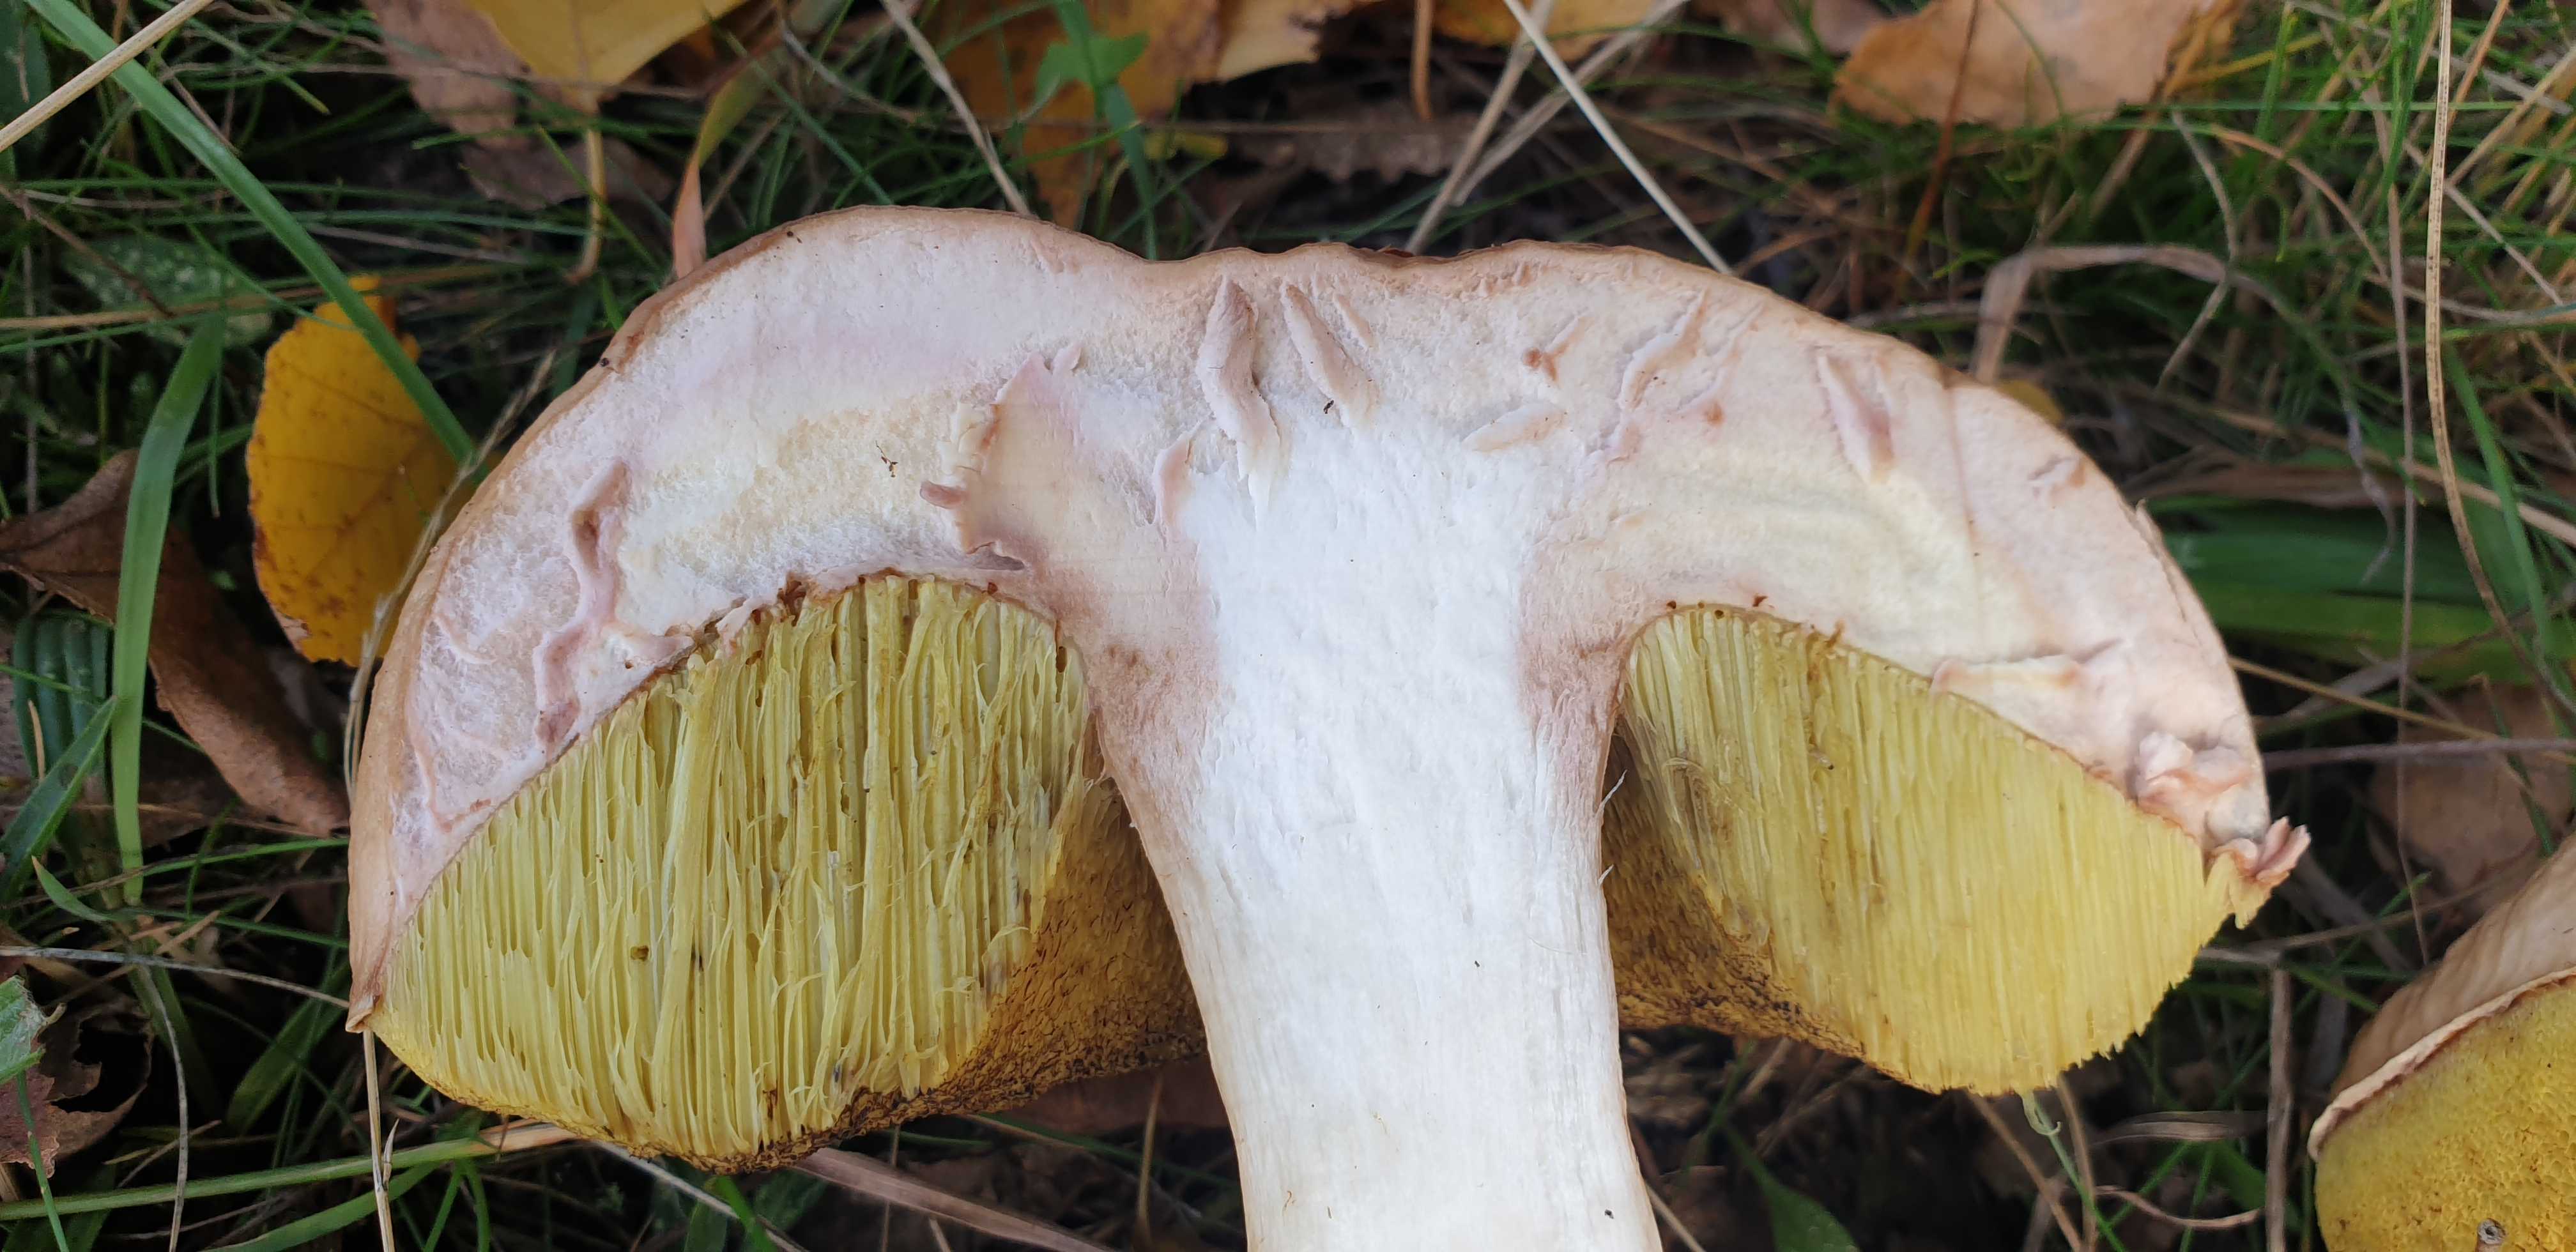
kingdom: Fungi
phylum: Basidiomycota
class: Agaricomycetes
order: Boletales
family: Boletaceae
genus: Boletus
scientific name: Boletus edulis
